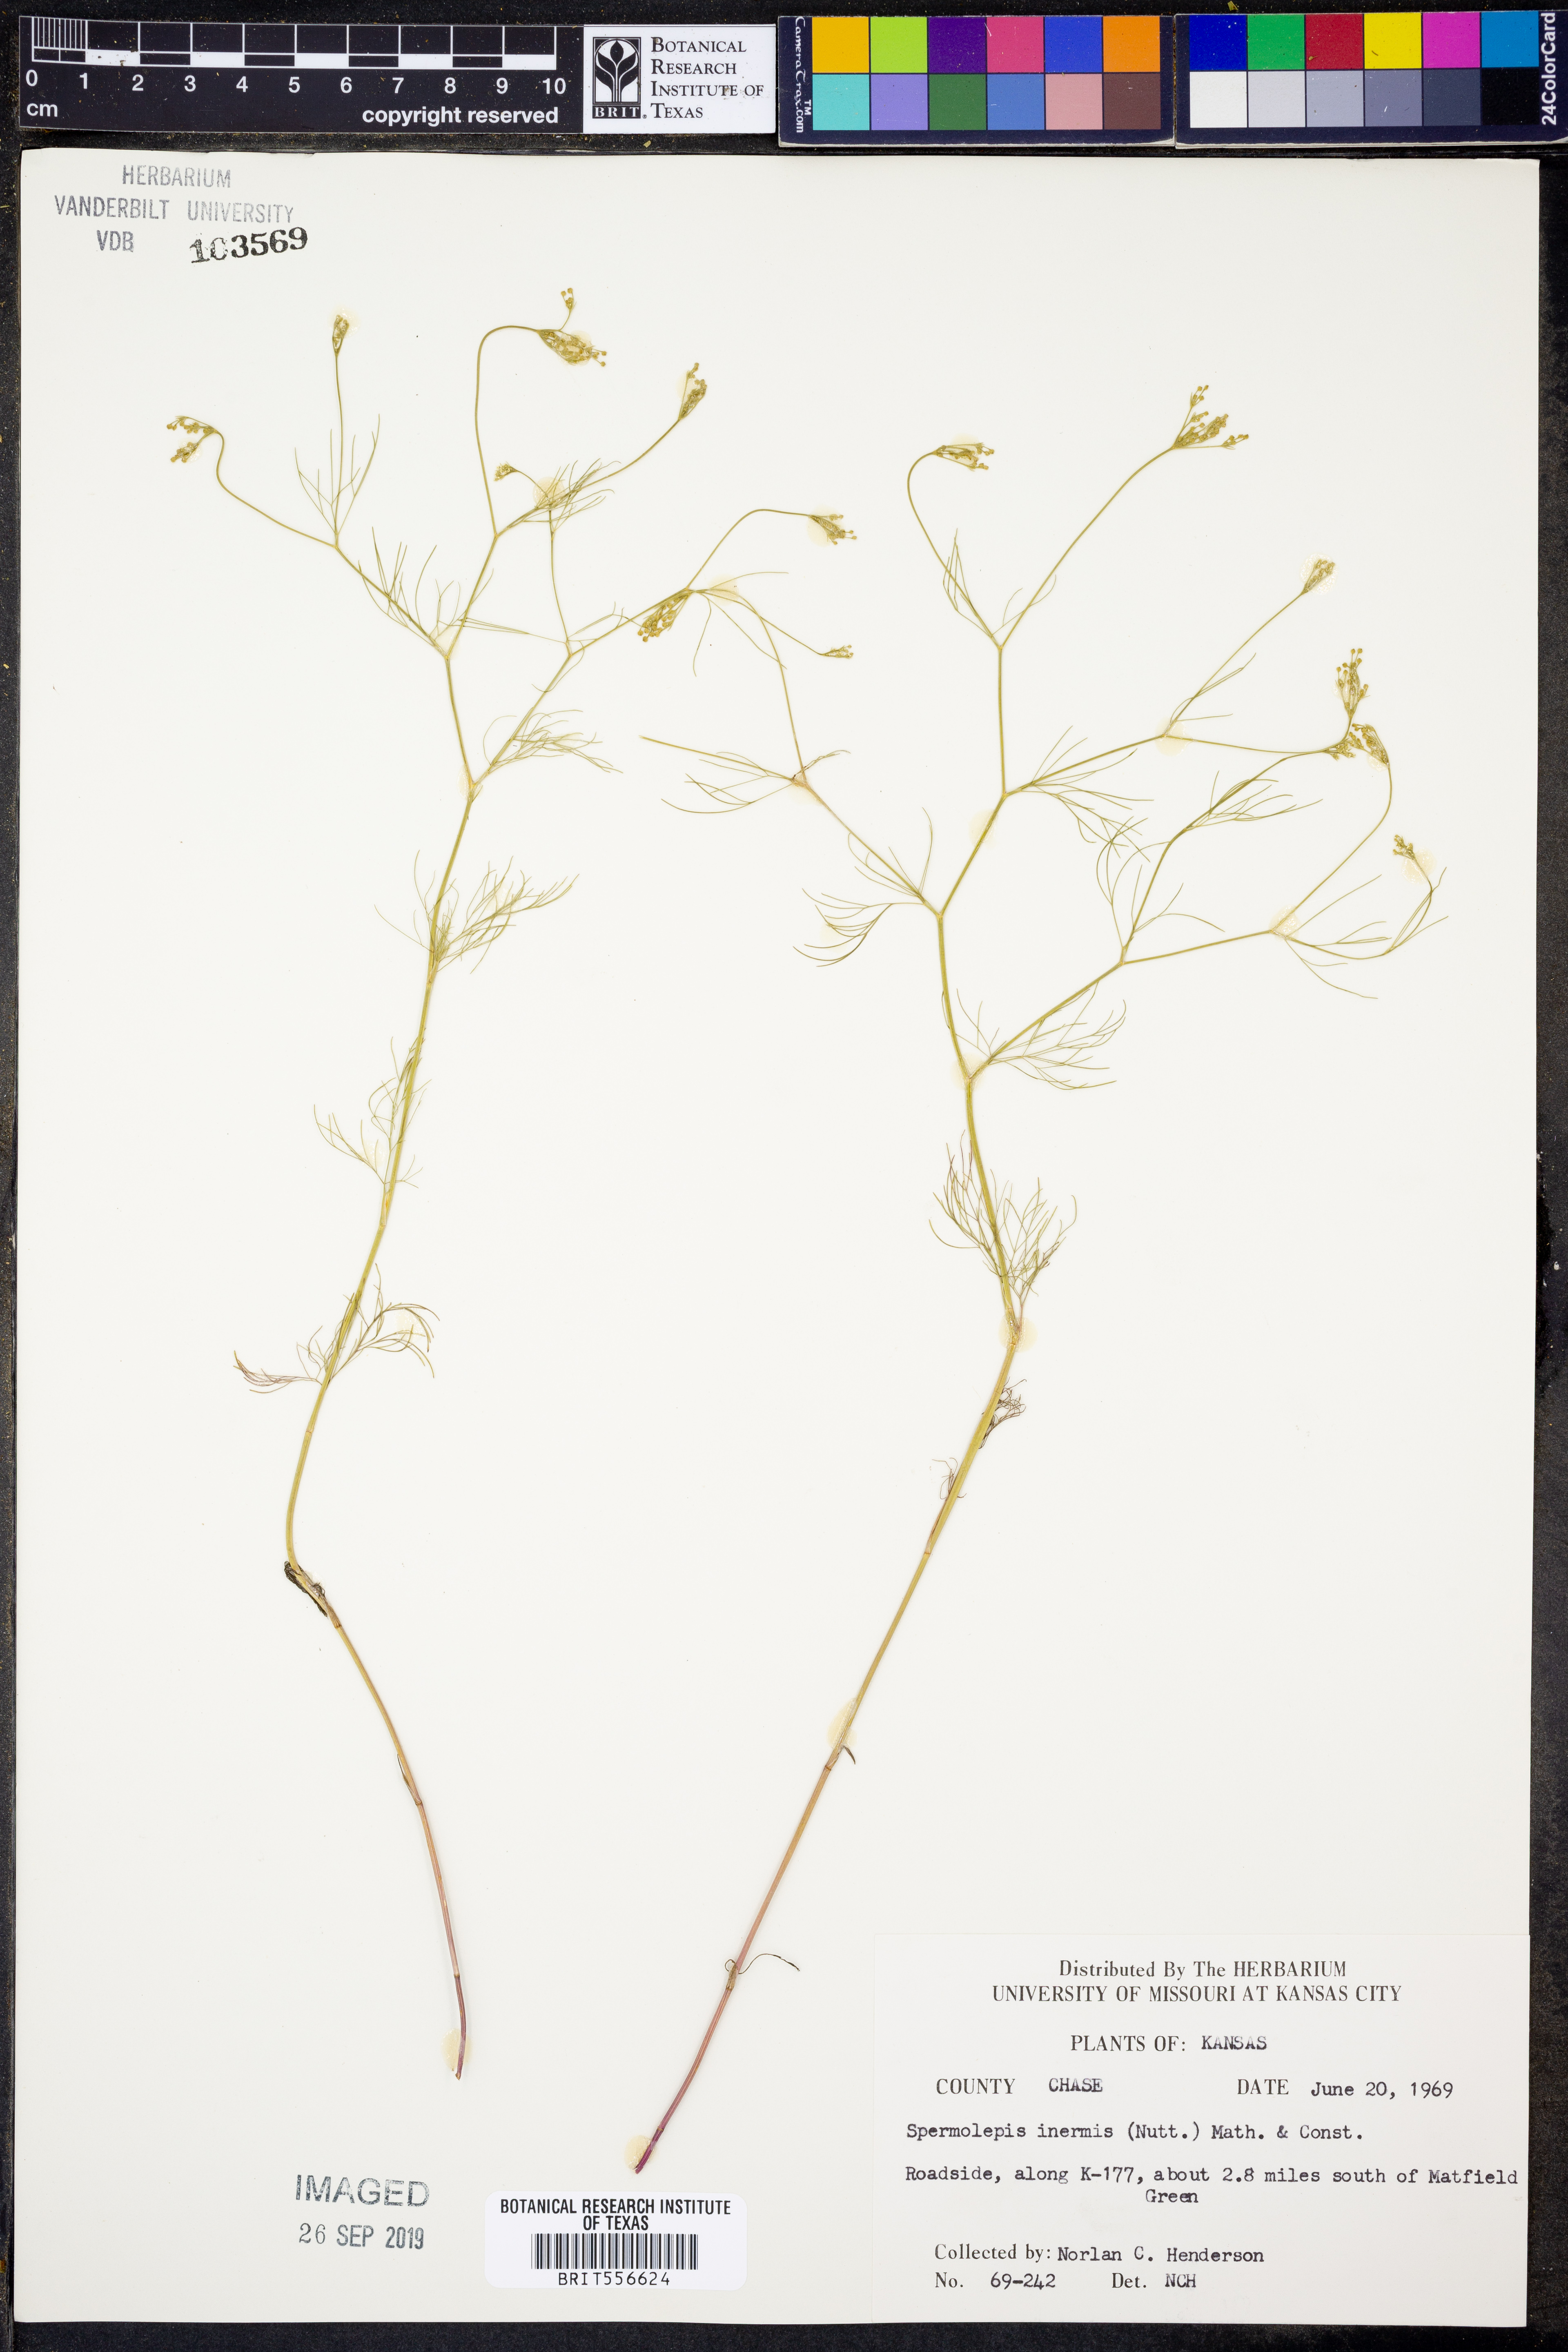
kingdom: Plantae
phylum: Tracheophyta
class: Magnoliopsida
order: Apiales
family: Apiaceae
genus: Spermolepis
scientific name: Spermolepis inermis
